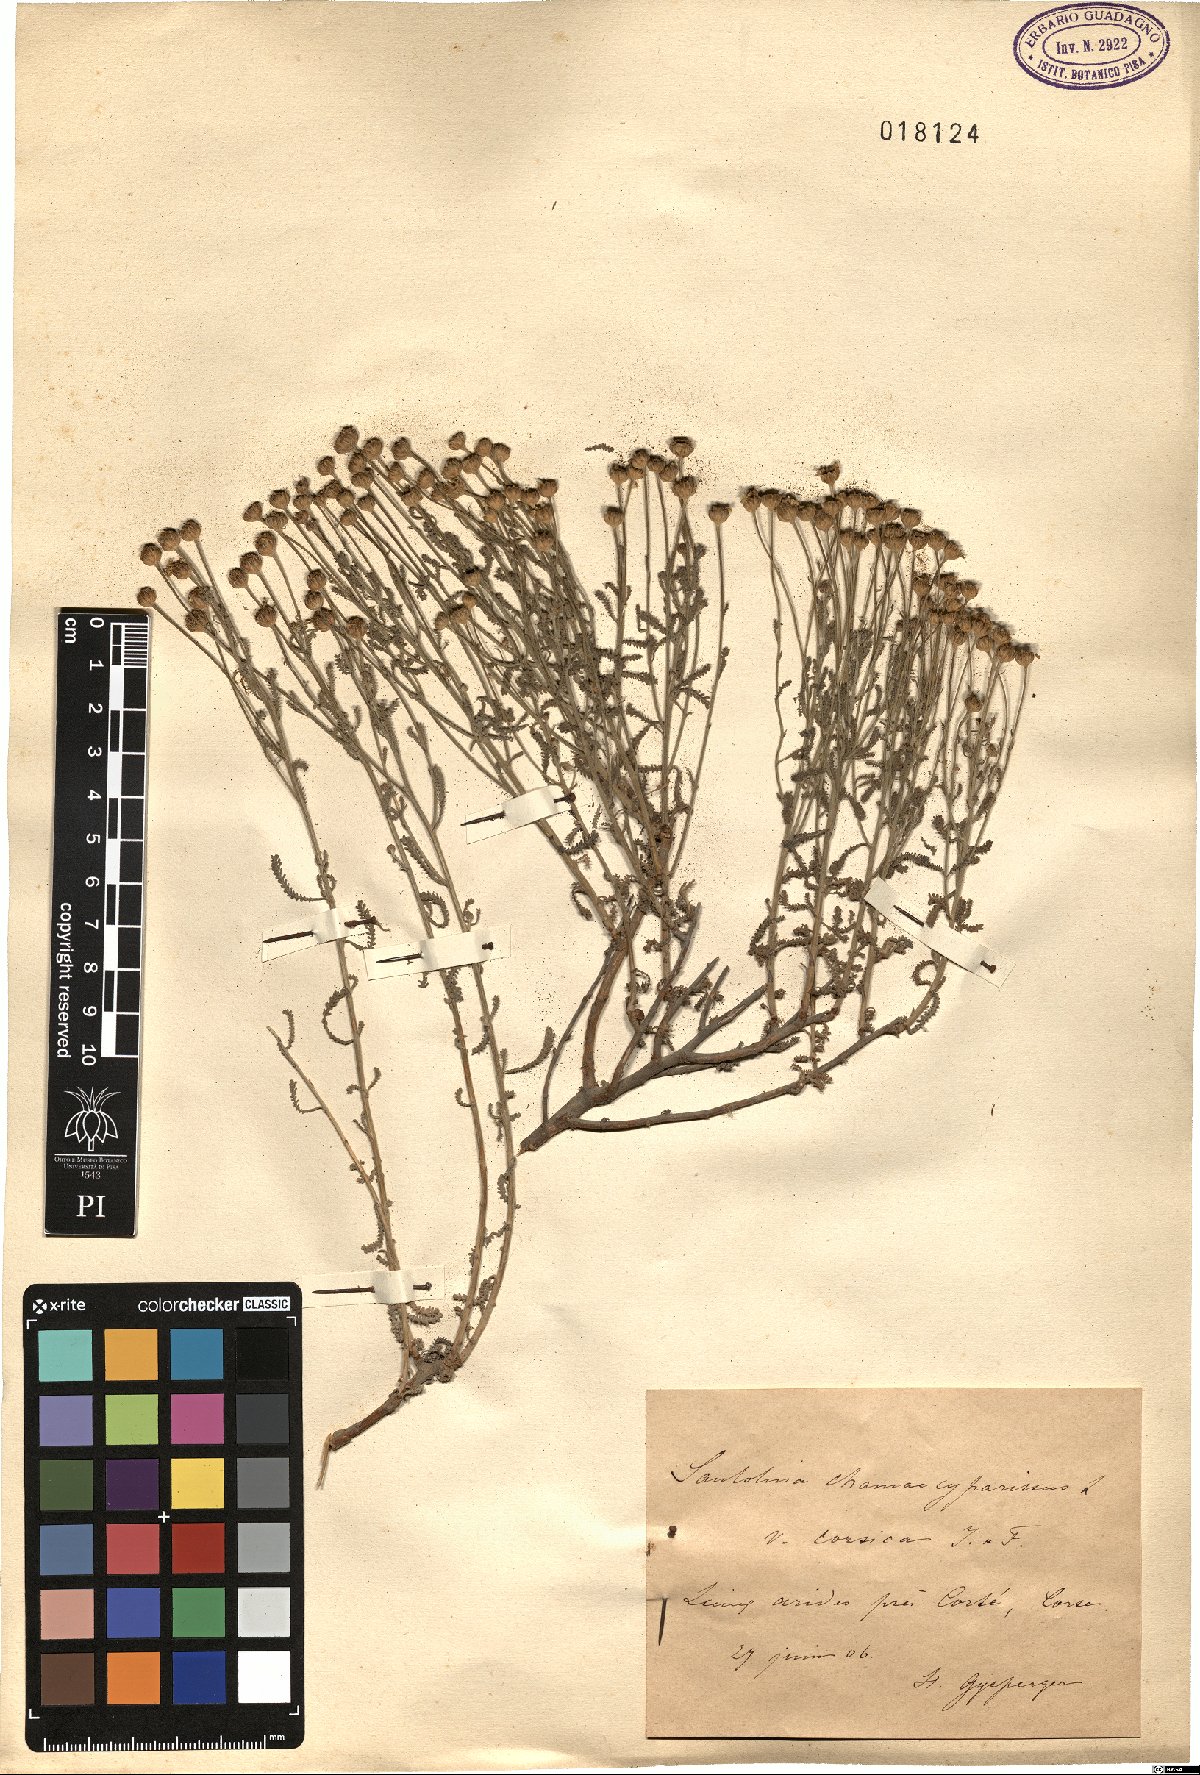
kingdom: Plantae
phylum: Tracheophyta
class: Magnoliopsida
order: Asterales
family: Asteraceae
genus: Santolina
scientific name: Santolina corsica
